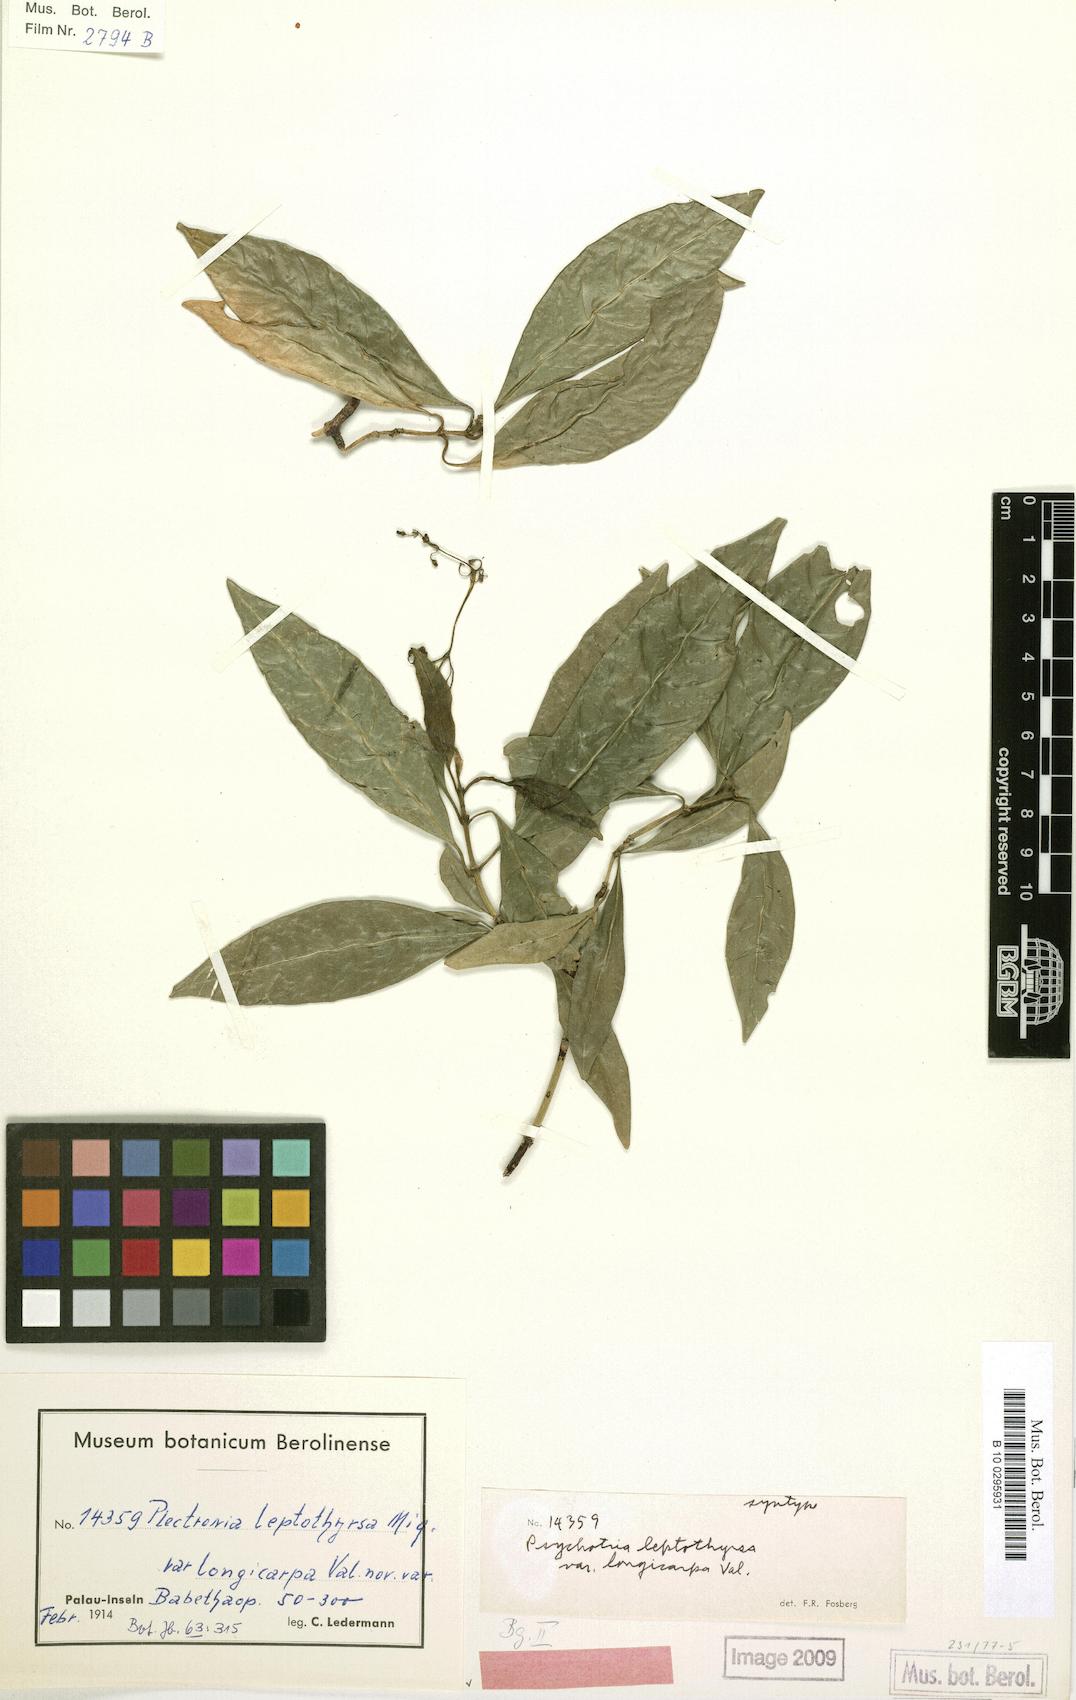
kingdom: Plantae
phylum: Tracheophyta
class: Magnoliopsida
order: Gentianales
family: Rubiaceae
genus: Eumachia
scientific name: Eumachia leptothyrsa
